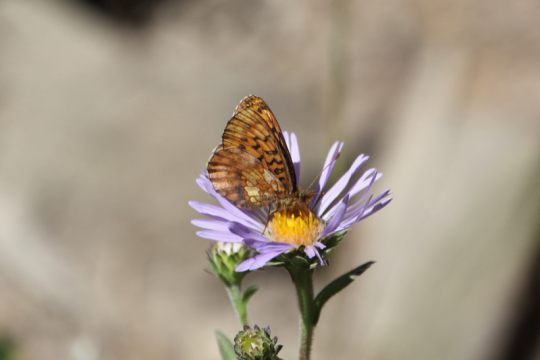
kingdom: Animalia
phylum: Arthropoda
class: Insecta
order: Lepidoptera
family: Nymphalidae
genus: Boloria
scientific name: Boloria epithore
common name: Pacific Fritillary
